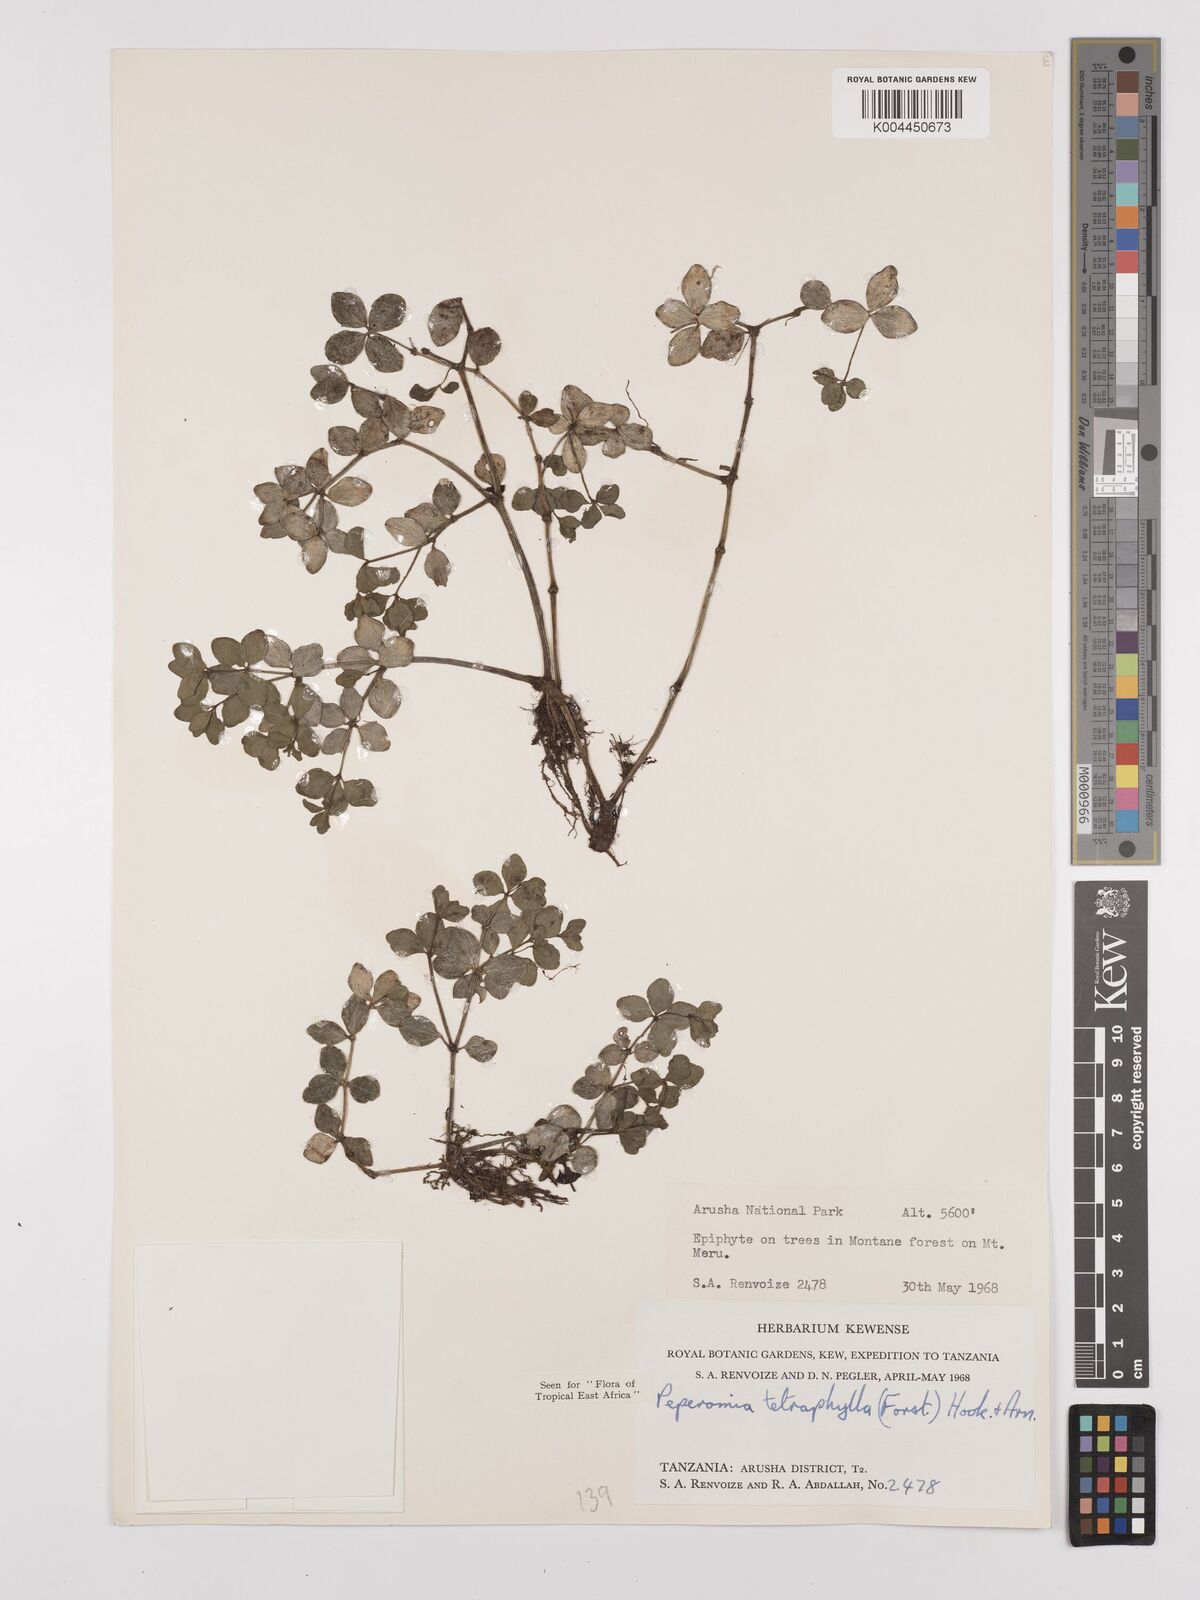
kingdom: Plantae
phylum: Tracheophyta
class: Magnoliopsida
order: Piperales
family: Piperaceae
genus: Peperomia
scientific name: Peperomia tetraphylla
